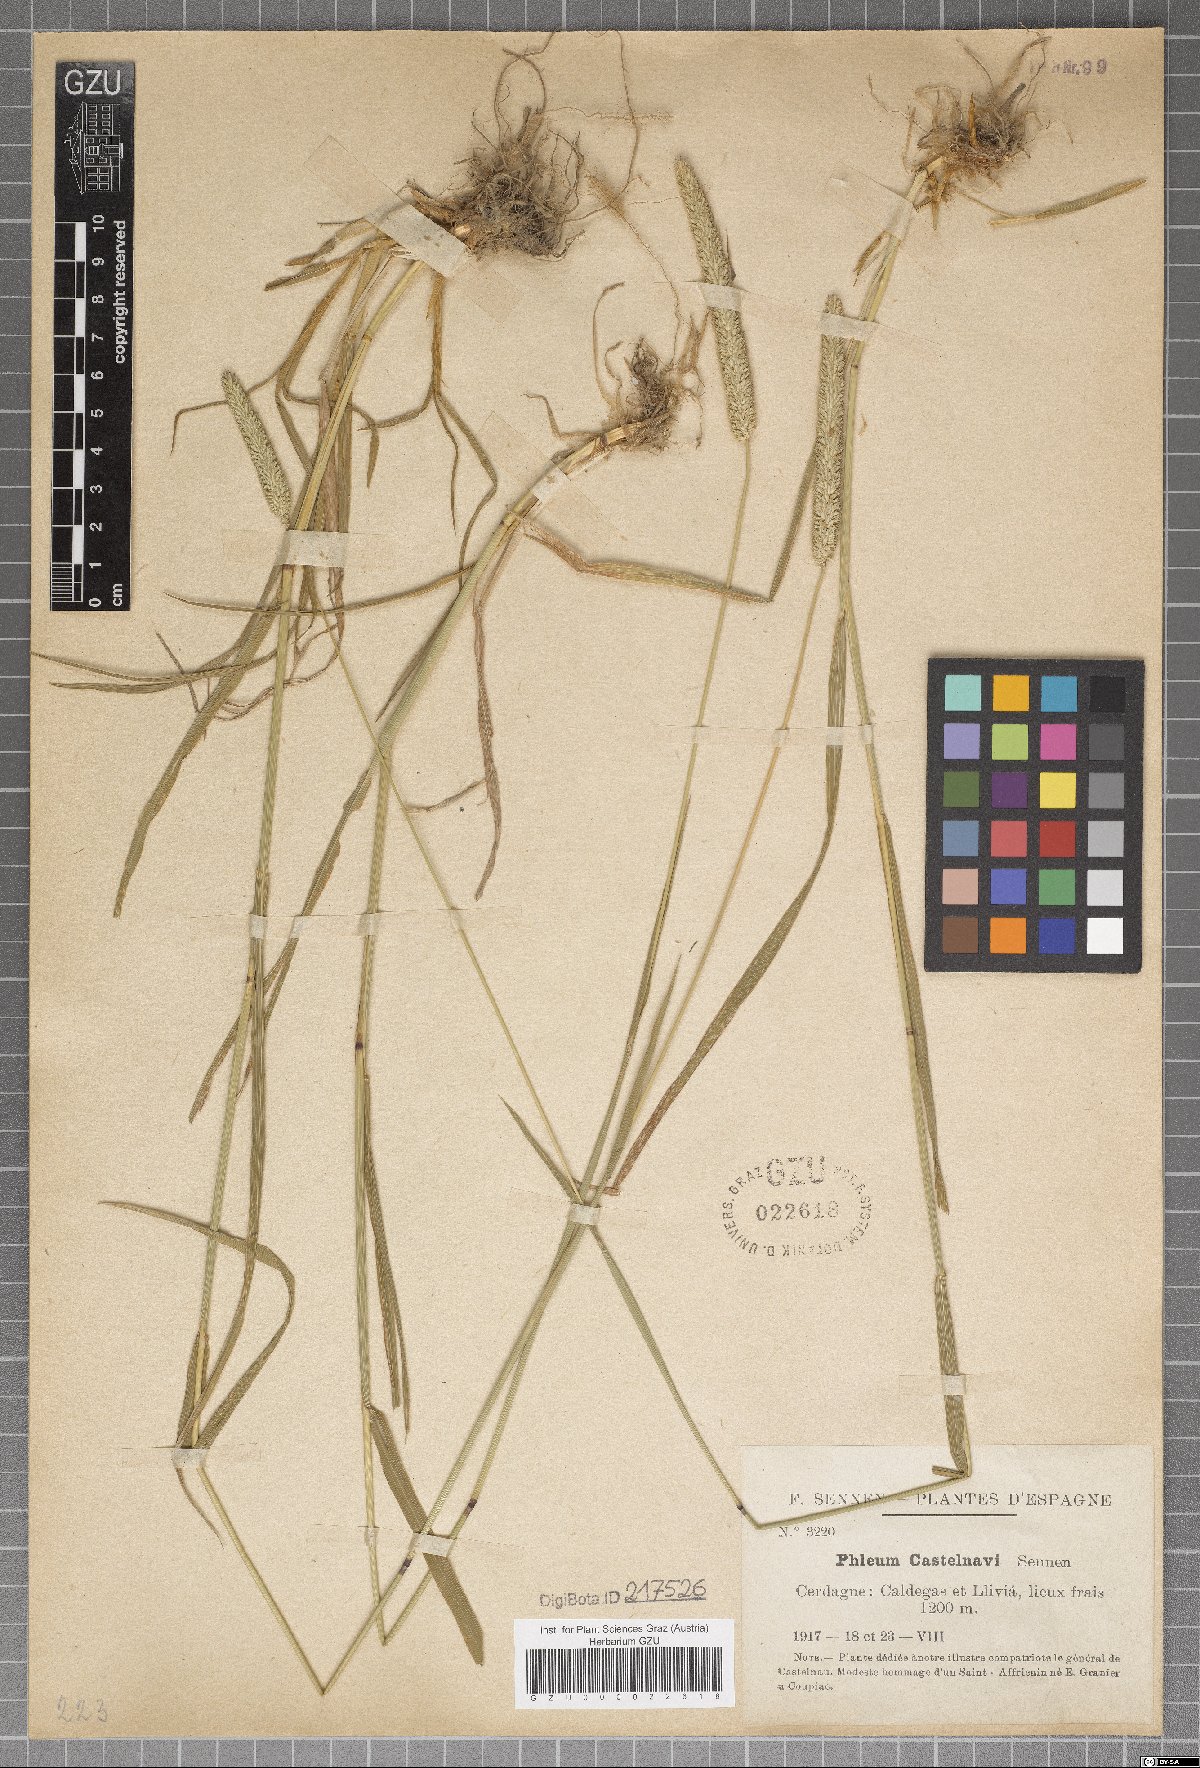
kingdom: Plantae
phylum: Tracheophyta
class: Liliopsida
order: Poales
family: Poaceae
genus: Phleum
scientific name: Phleum bertolonii
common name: Smaller cat's-tail
